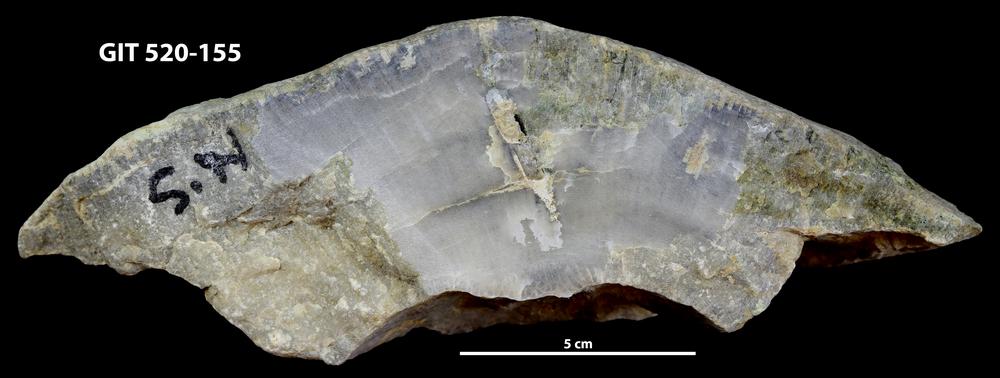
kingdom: Animalia
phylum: Xenacoelomorpha
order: Acoela
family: Proporidae
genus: Propora
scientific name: Propora
